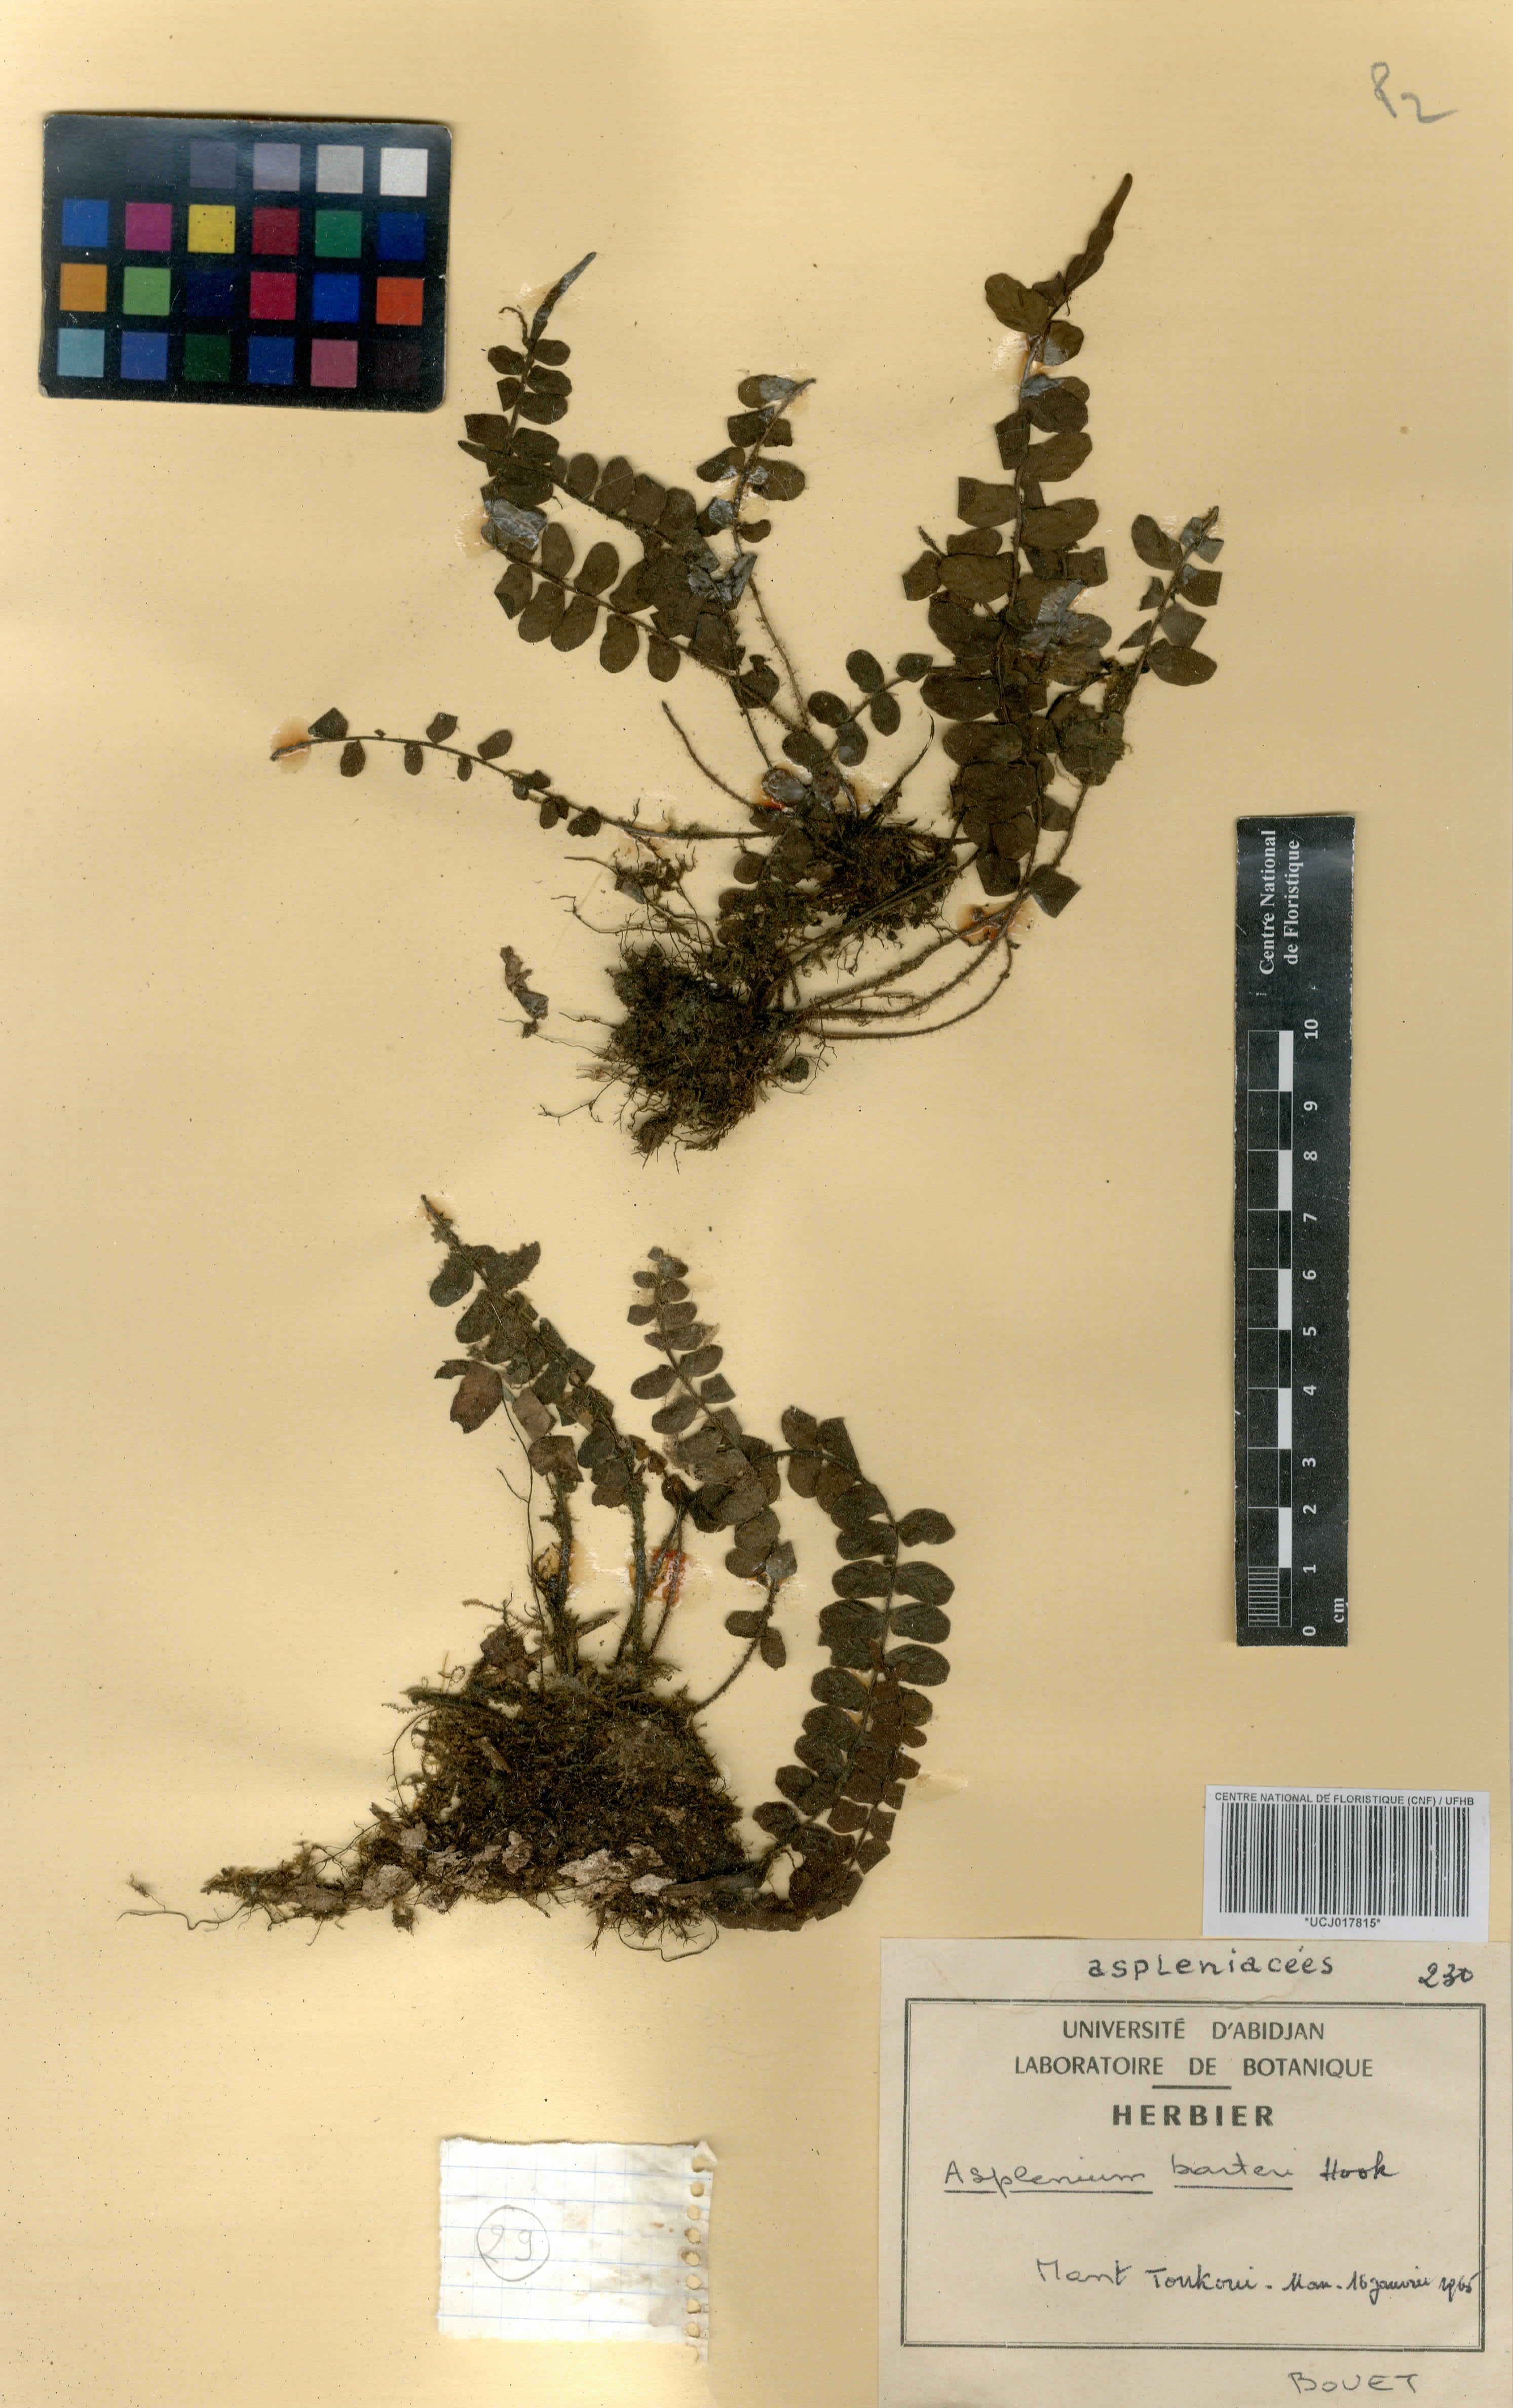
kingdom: Plantae
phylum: Tracheophyta
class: Polypodiopsida
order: Polypodiales
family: Aspleniaceae
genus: Asplenium
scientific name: Asplenium barteri
